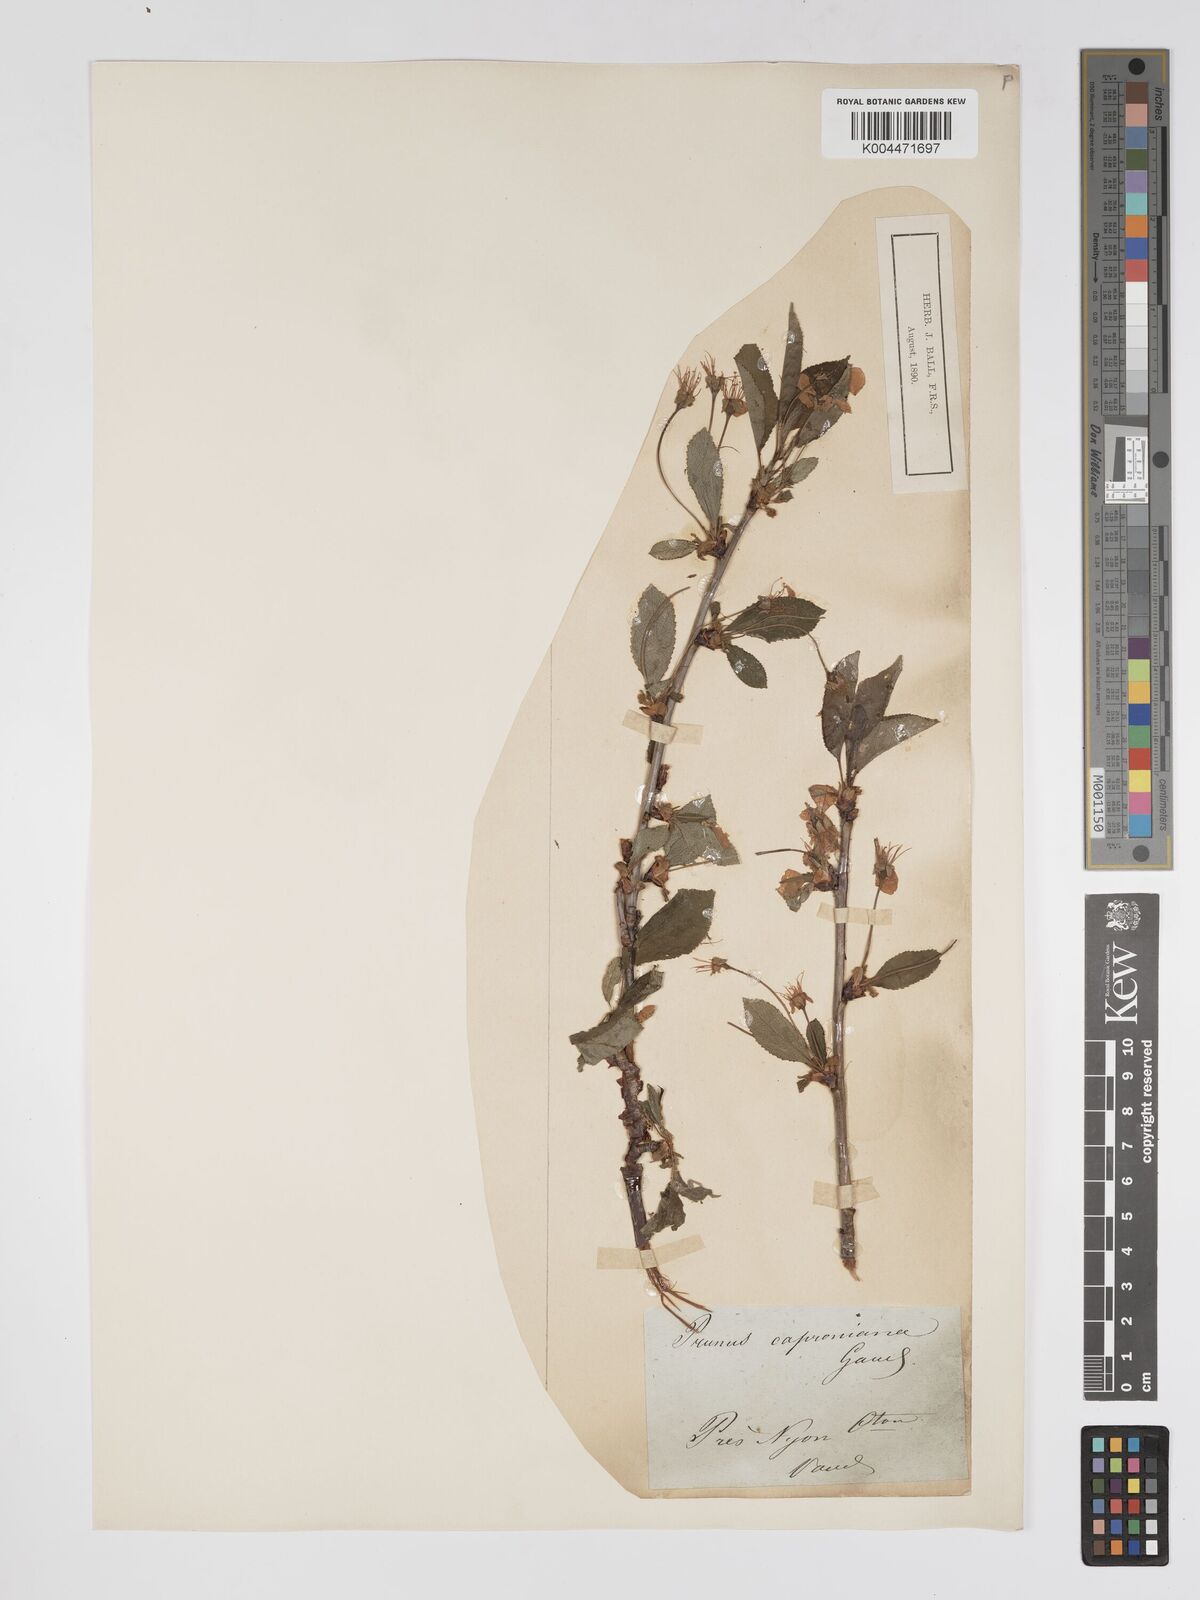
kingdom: Plantae
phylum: Tracheophyta
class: Magnoliopsida
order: Rosales
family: Rosaceae
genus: Prunus
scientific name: Prunus
